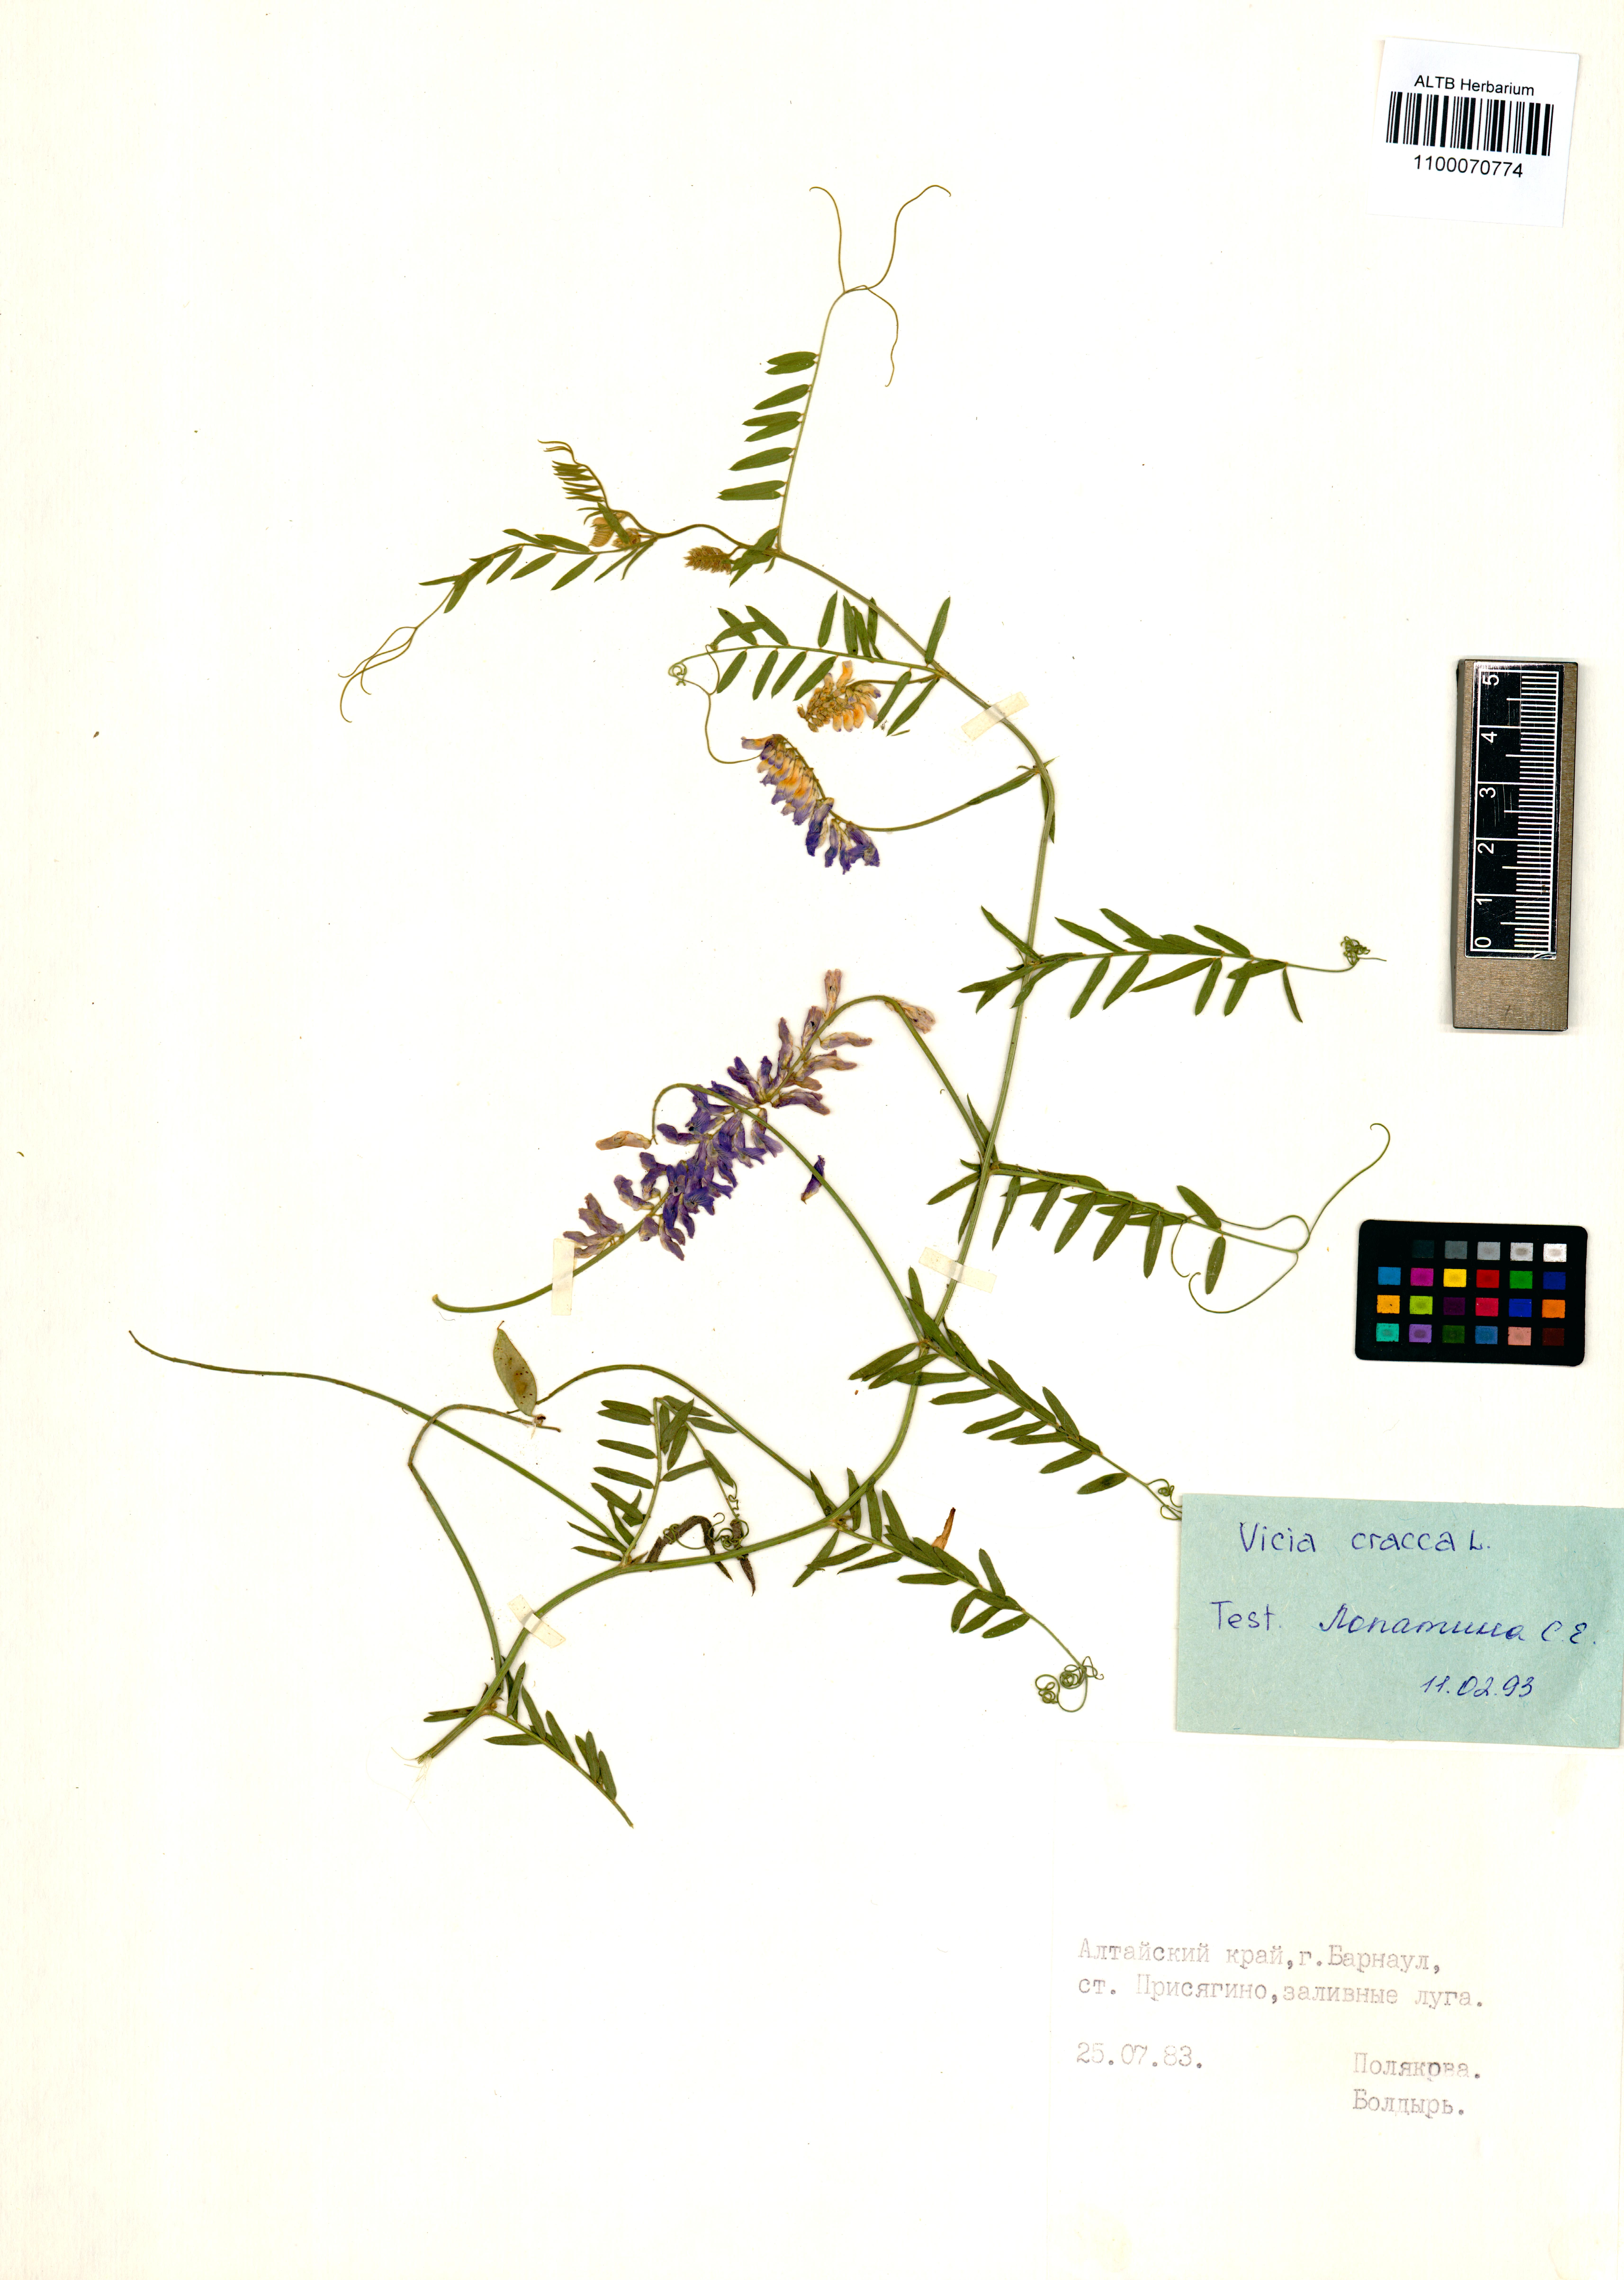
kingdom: Plantae
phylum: Tracheophyta
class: Magnoliopsida
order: Fabales
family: Fabaceae
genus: Vicia
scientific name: Vicia cracca
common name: Bird vetch
